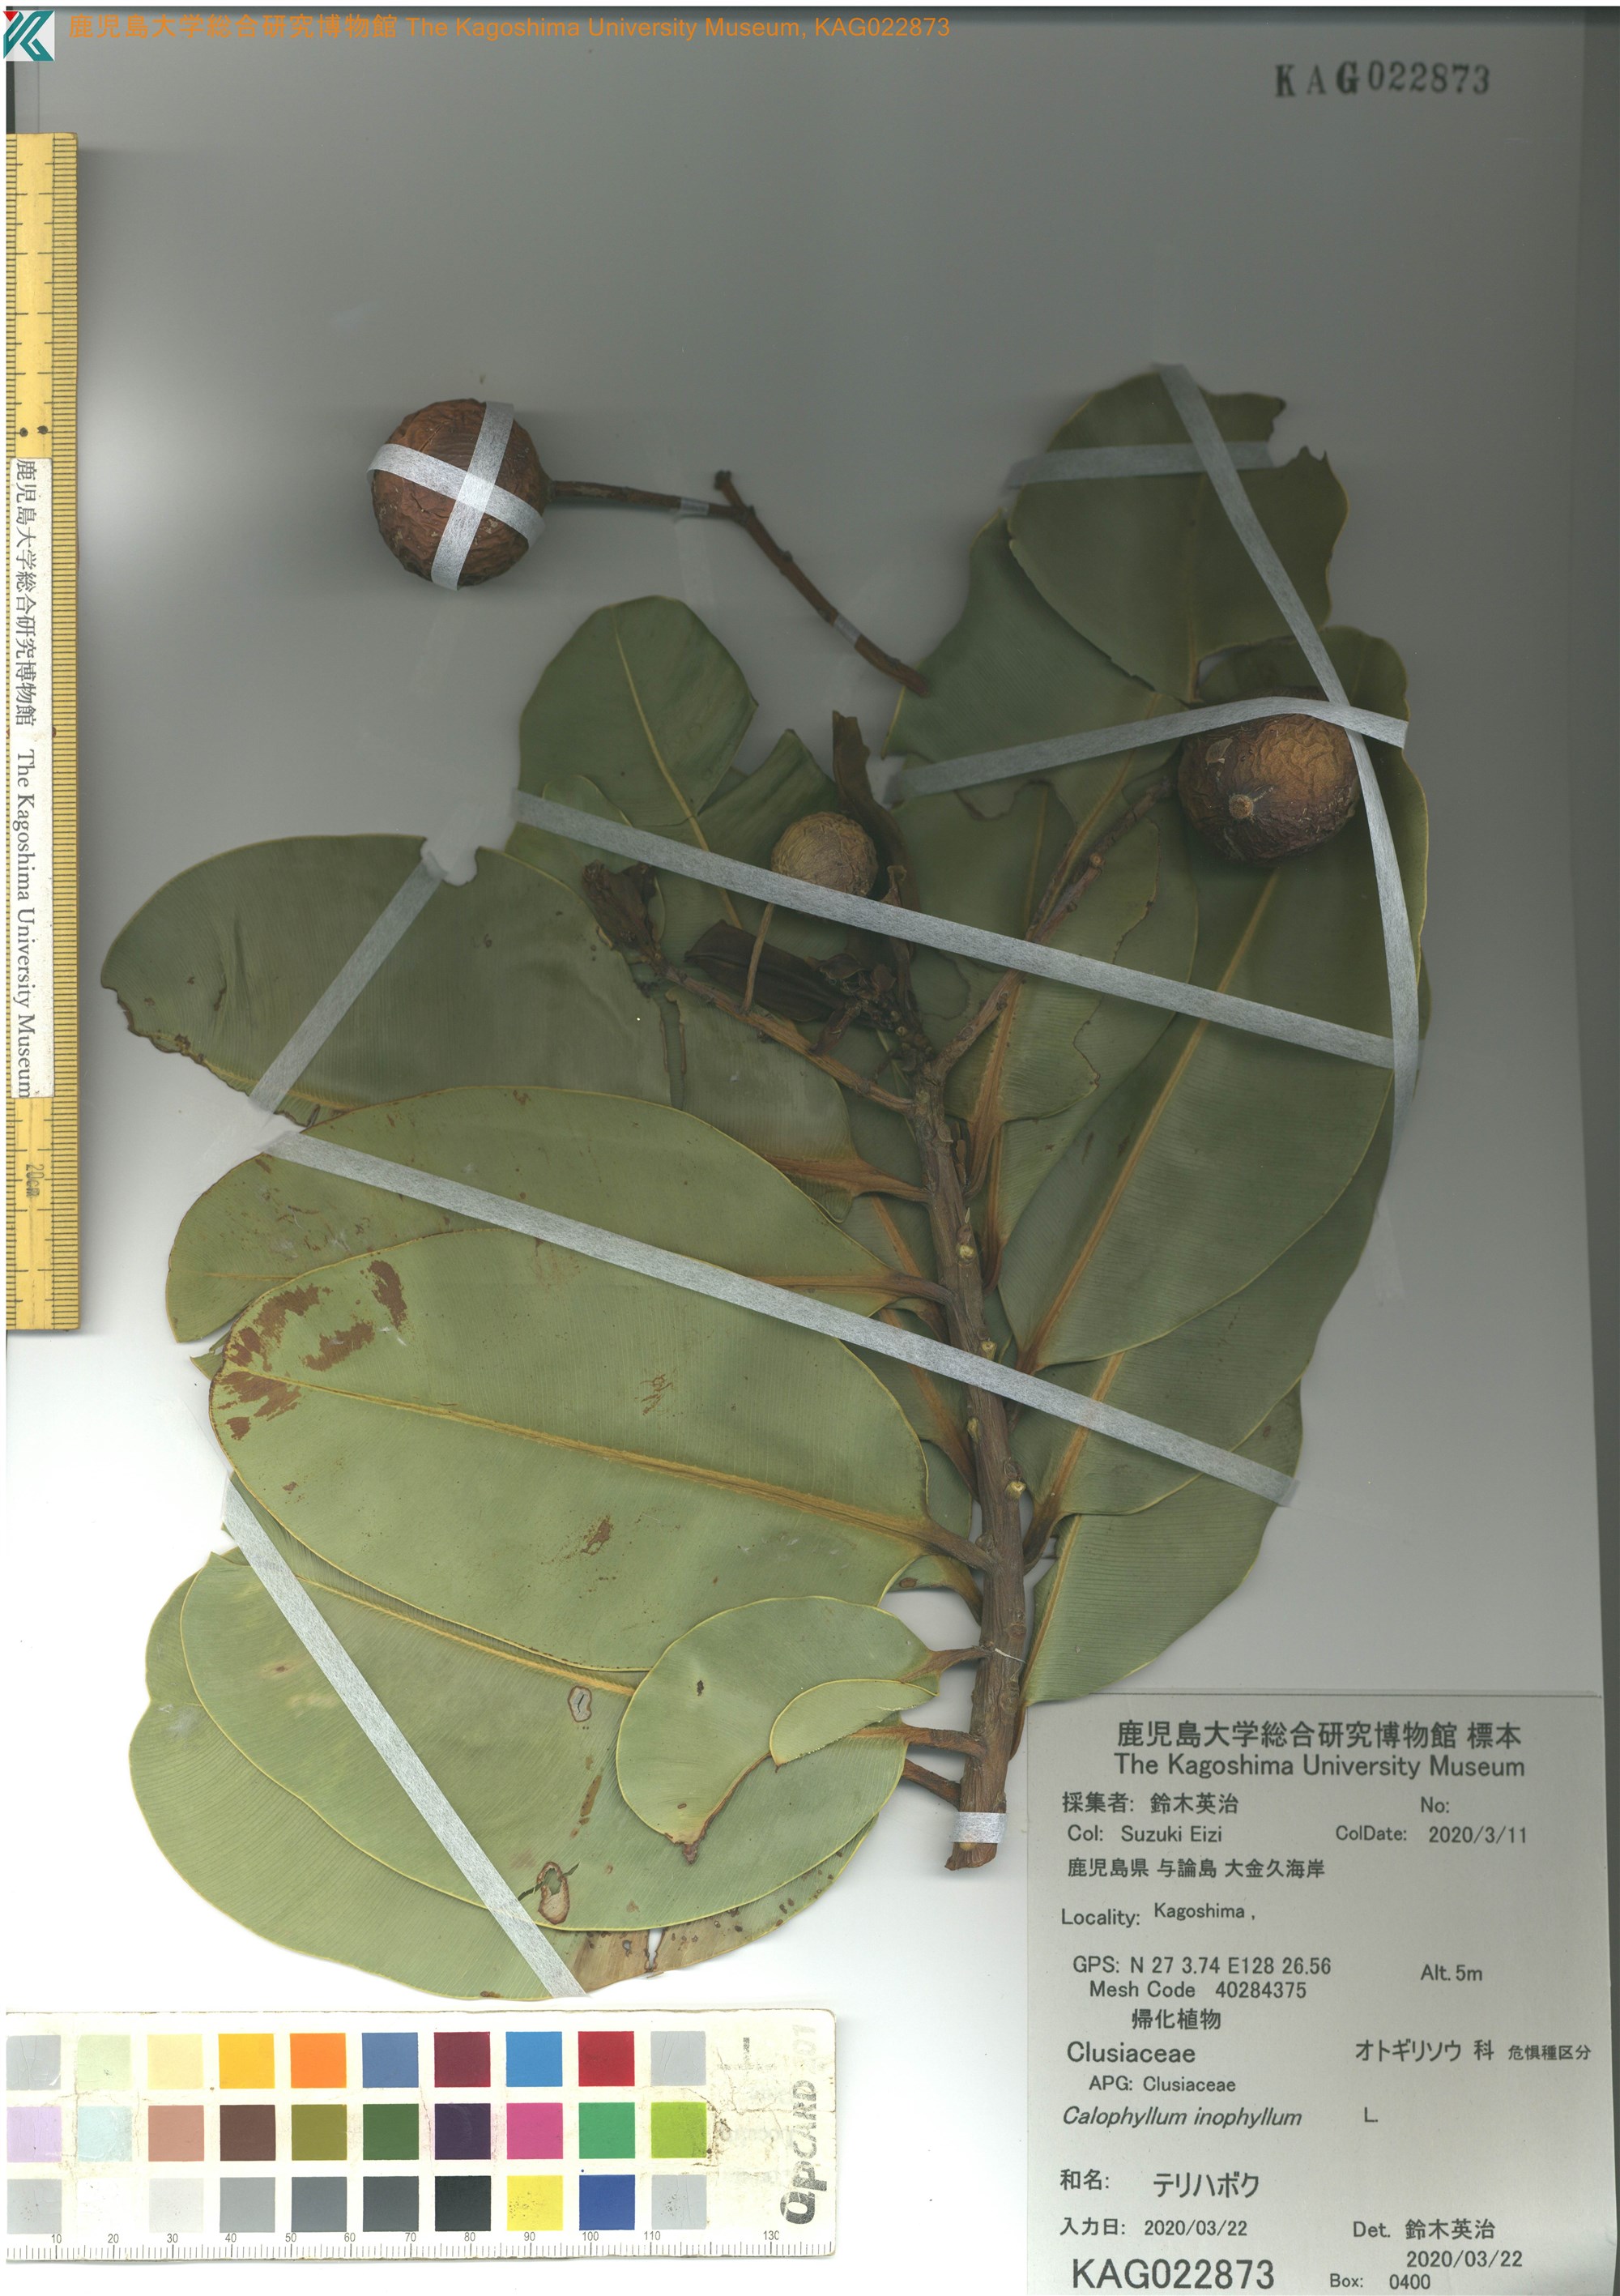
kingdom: Plantae
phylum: Tracheophyta
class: Magnoliopsida
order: Malpighiales
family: Calophyllaceae
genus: Calophyllum
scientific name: Calophyllum inophyllum
